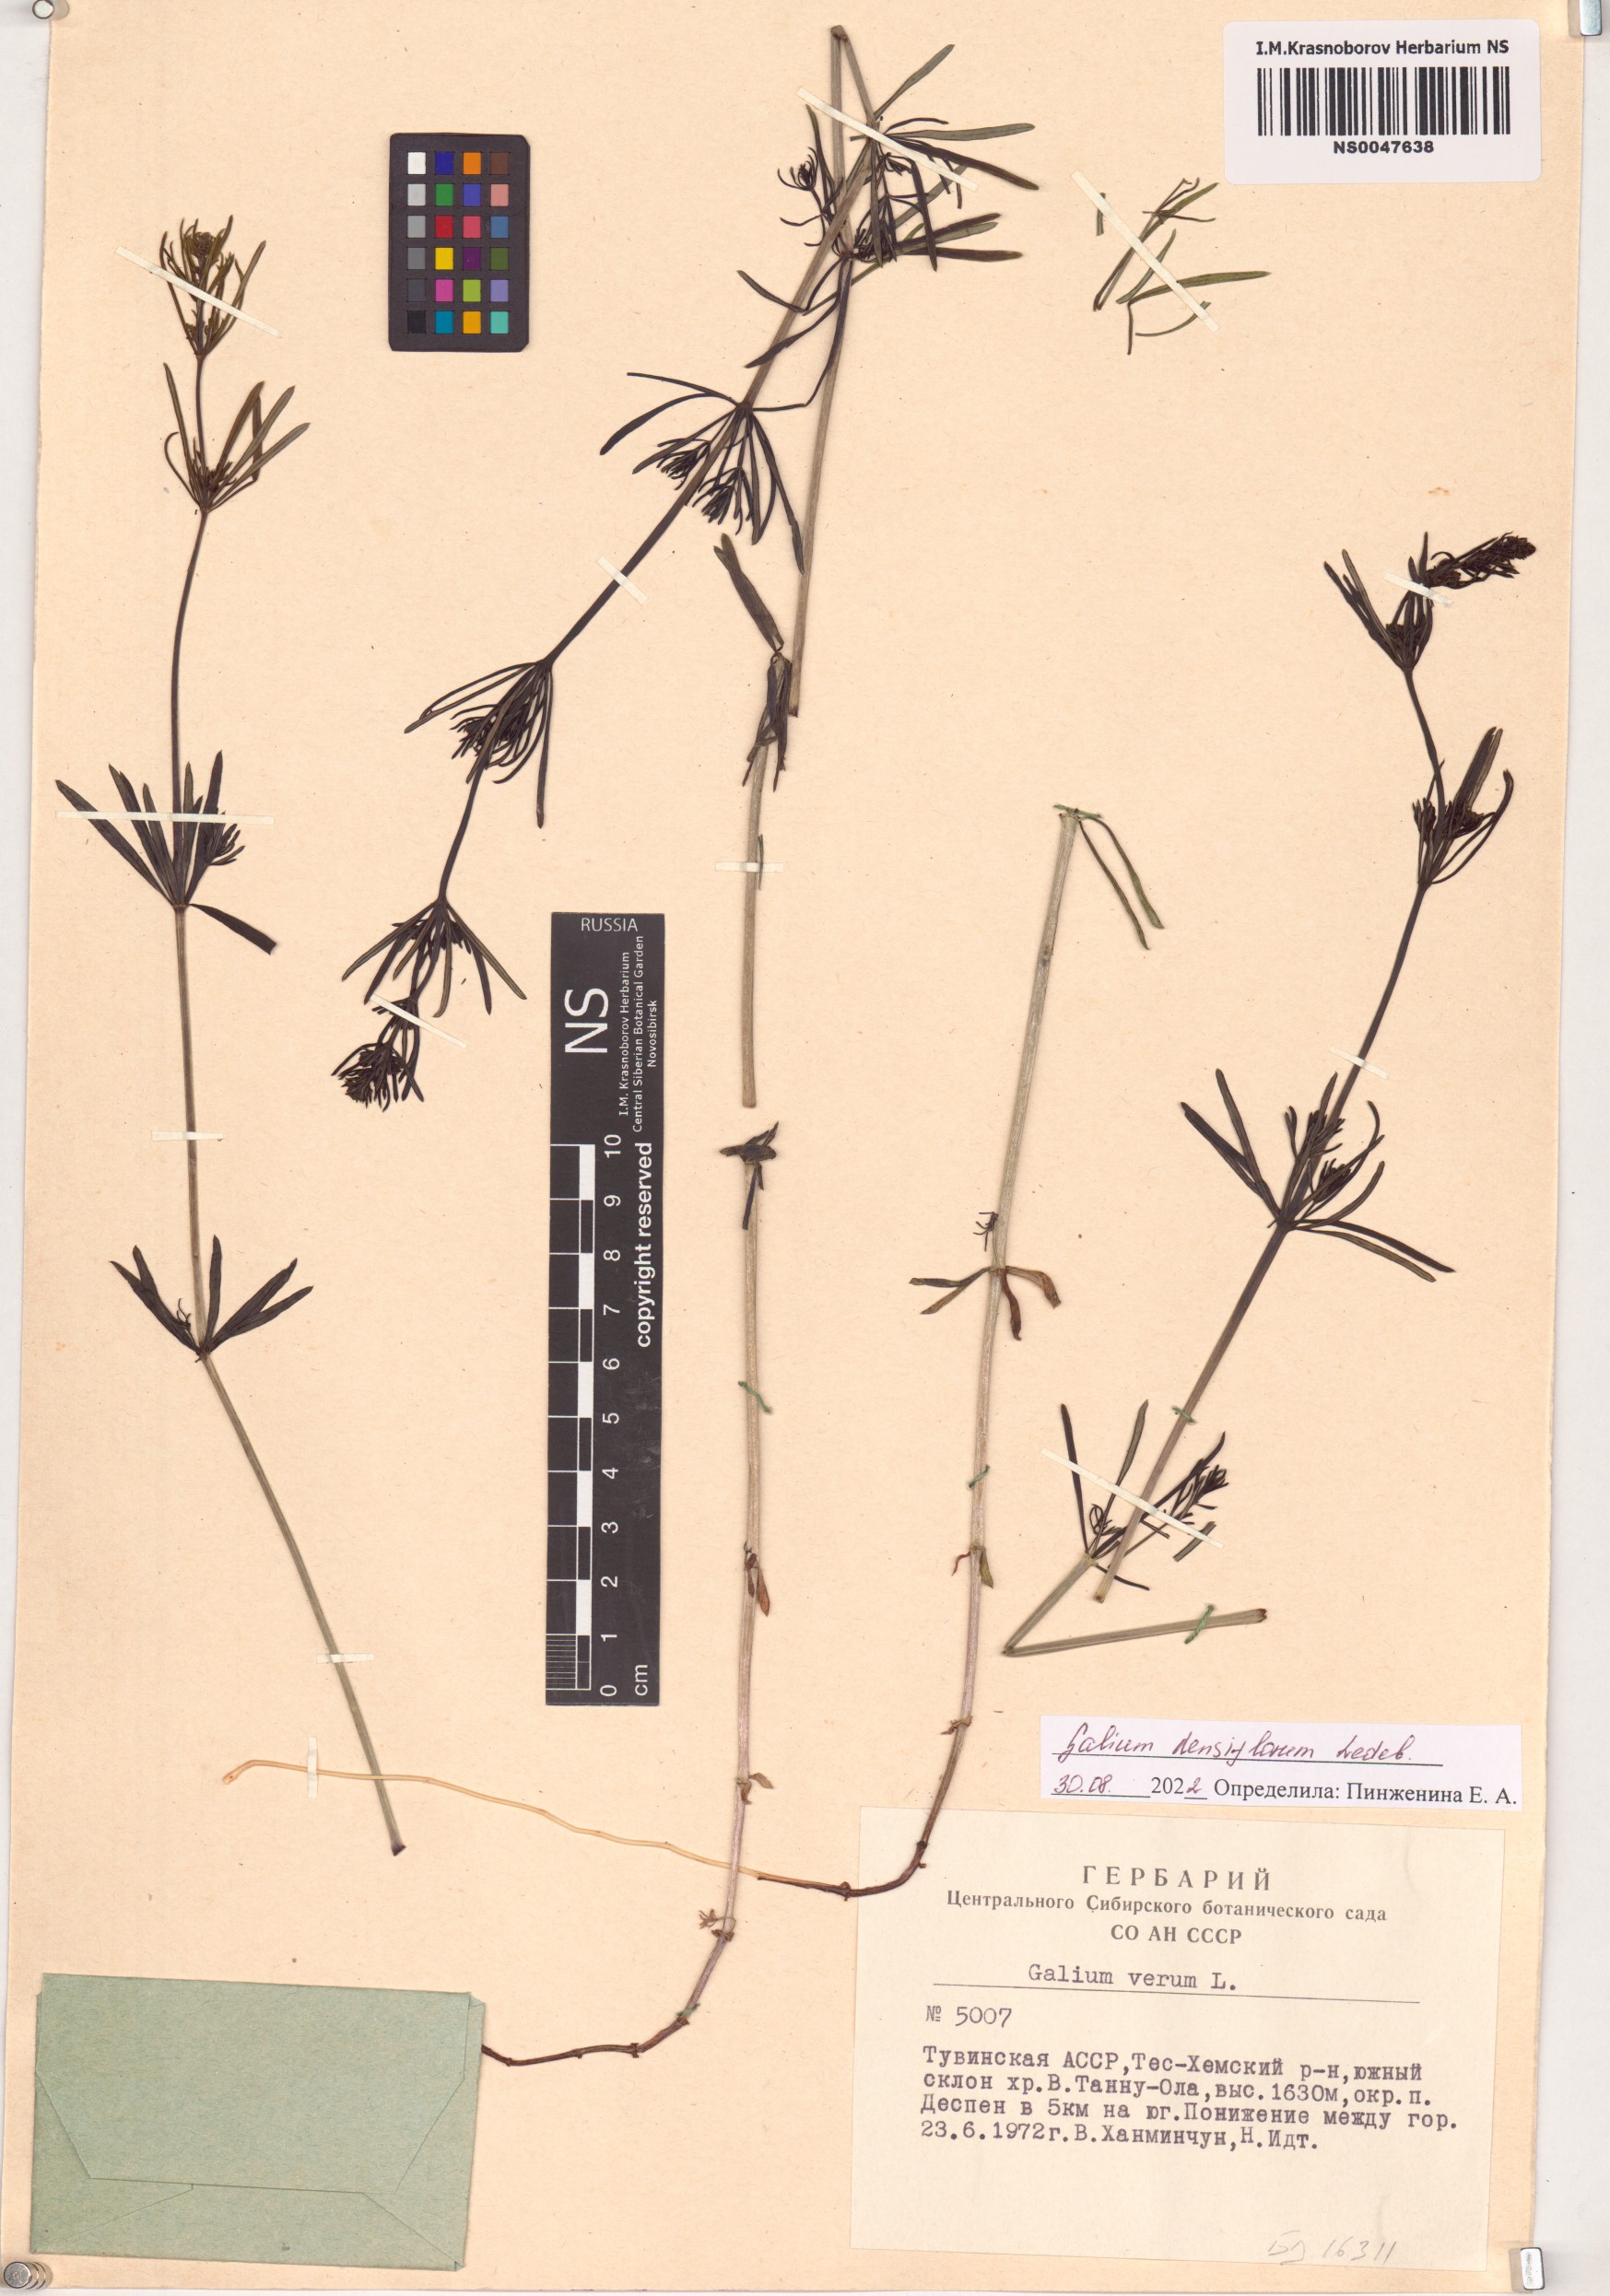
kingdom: Plantae
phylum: Tracheophyta
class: Magnoliopsida
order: Gentianales
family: Rubiaceae
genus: Galium
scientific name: Galium densiflorum
